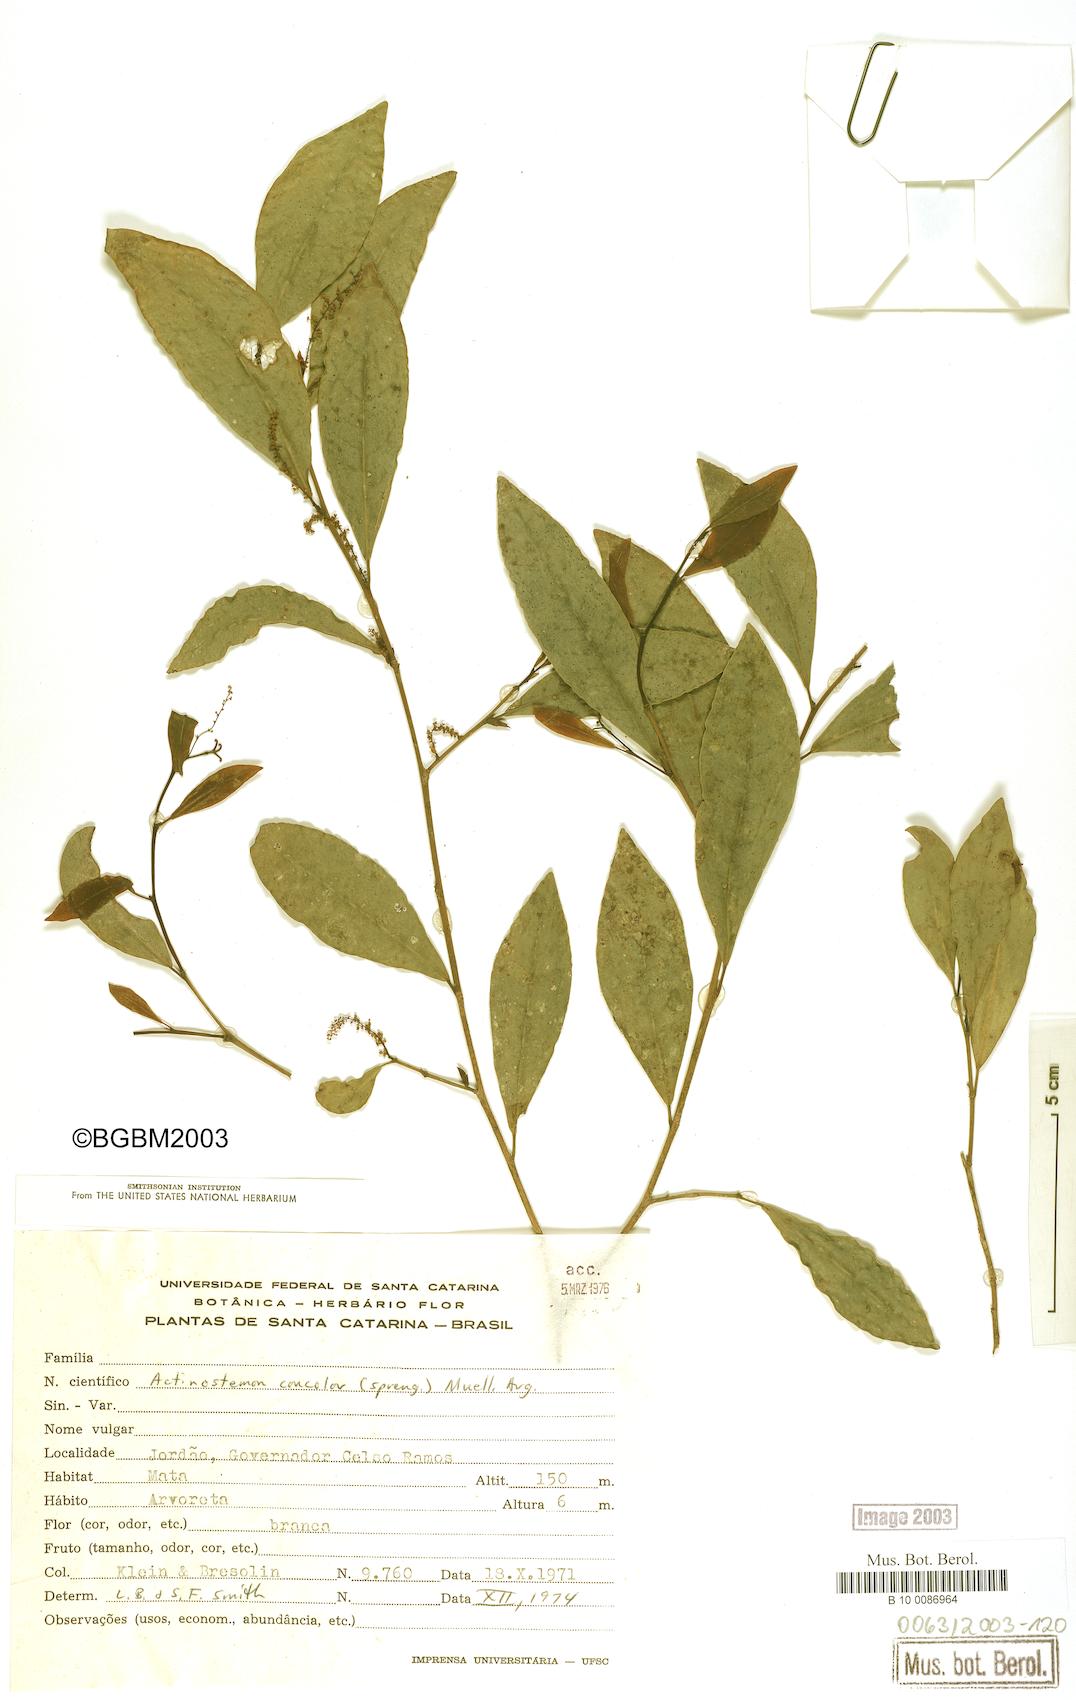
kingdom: Plantae
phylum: Tracheophyta
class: Magnoliopsida
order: Malpighiales
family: Euphorbiaceae
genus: Actinostemon
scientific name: Actinostemon concolor
